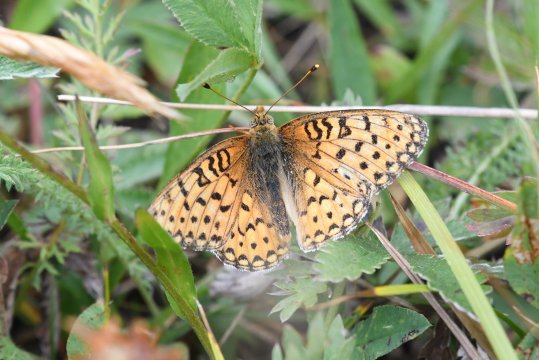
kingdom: Animalia
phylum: Arthropoda
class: Insecta
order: Lepidoptera
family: Nymphalidae
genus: Speyeria
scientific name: Speyeria mormonia
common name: Mormon Fritillary
